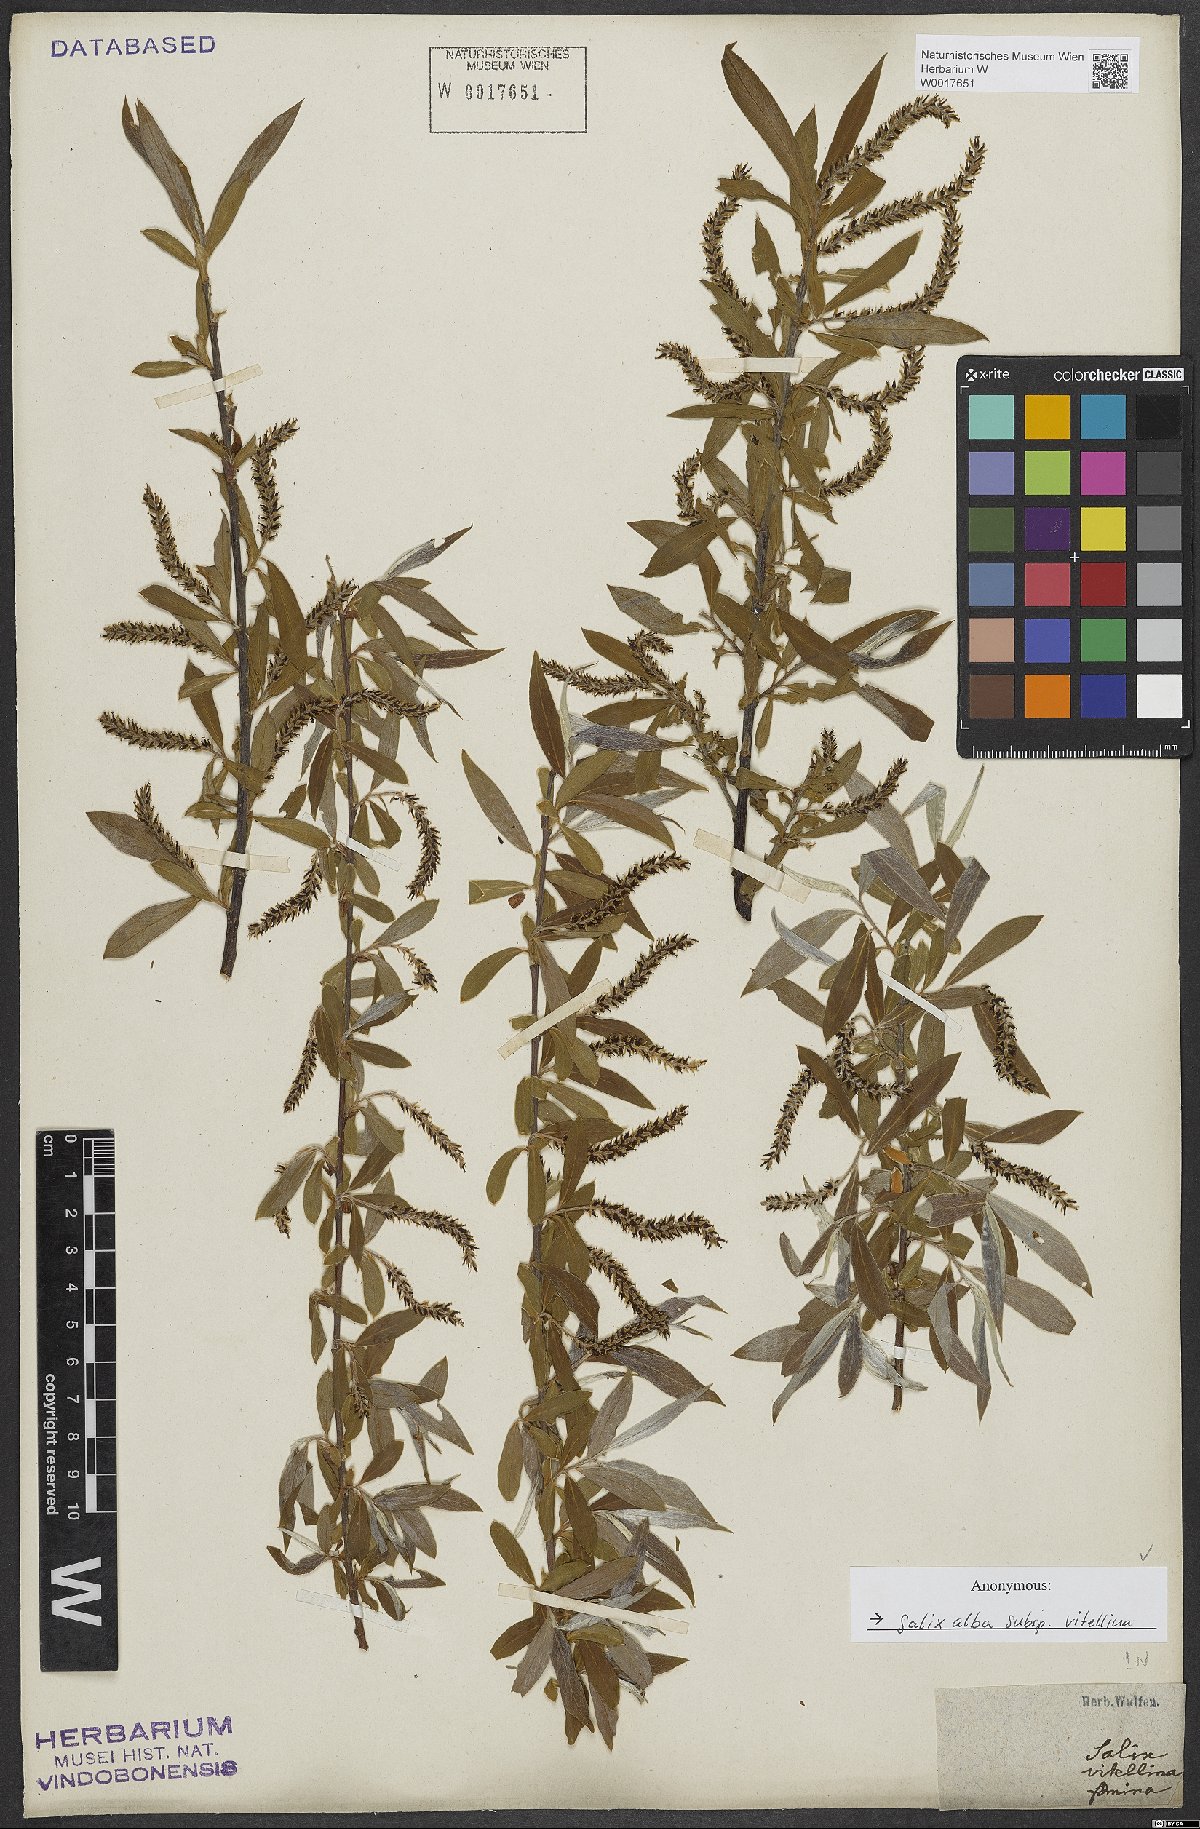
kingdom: Plantae
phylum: Tracheophyta
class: Magnoliopsida
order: Malpighiales
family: Salicaceae
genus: Salix
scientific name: Salix alba
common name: White willow
